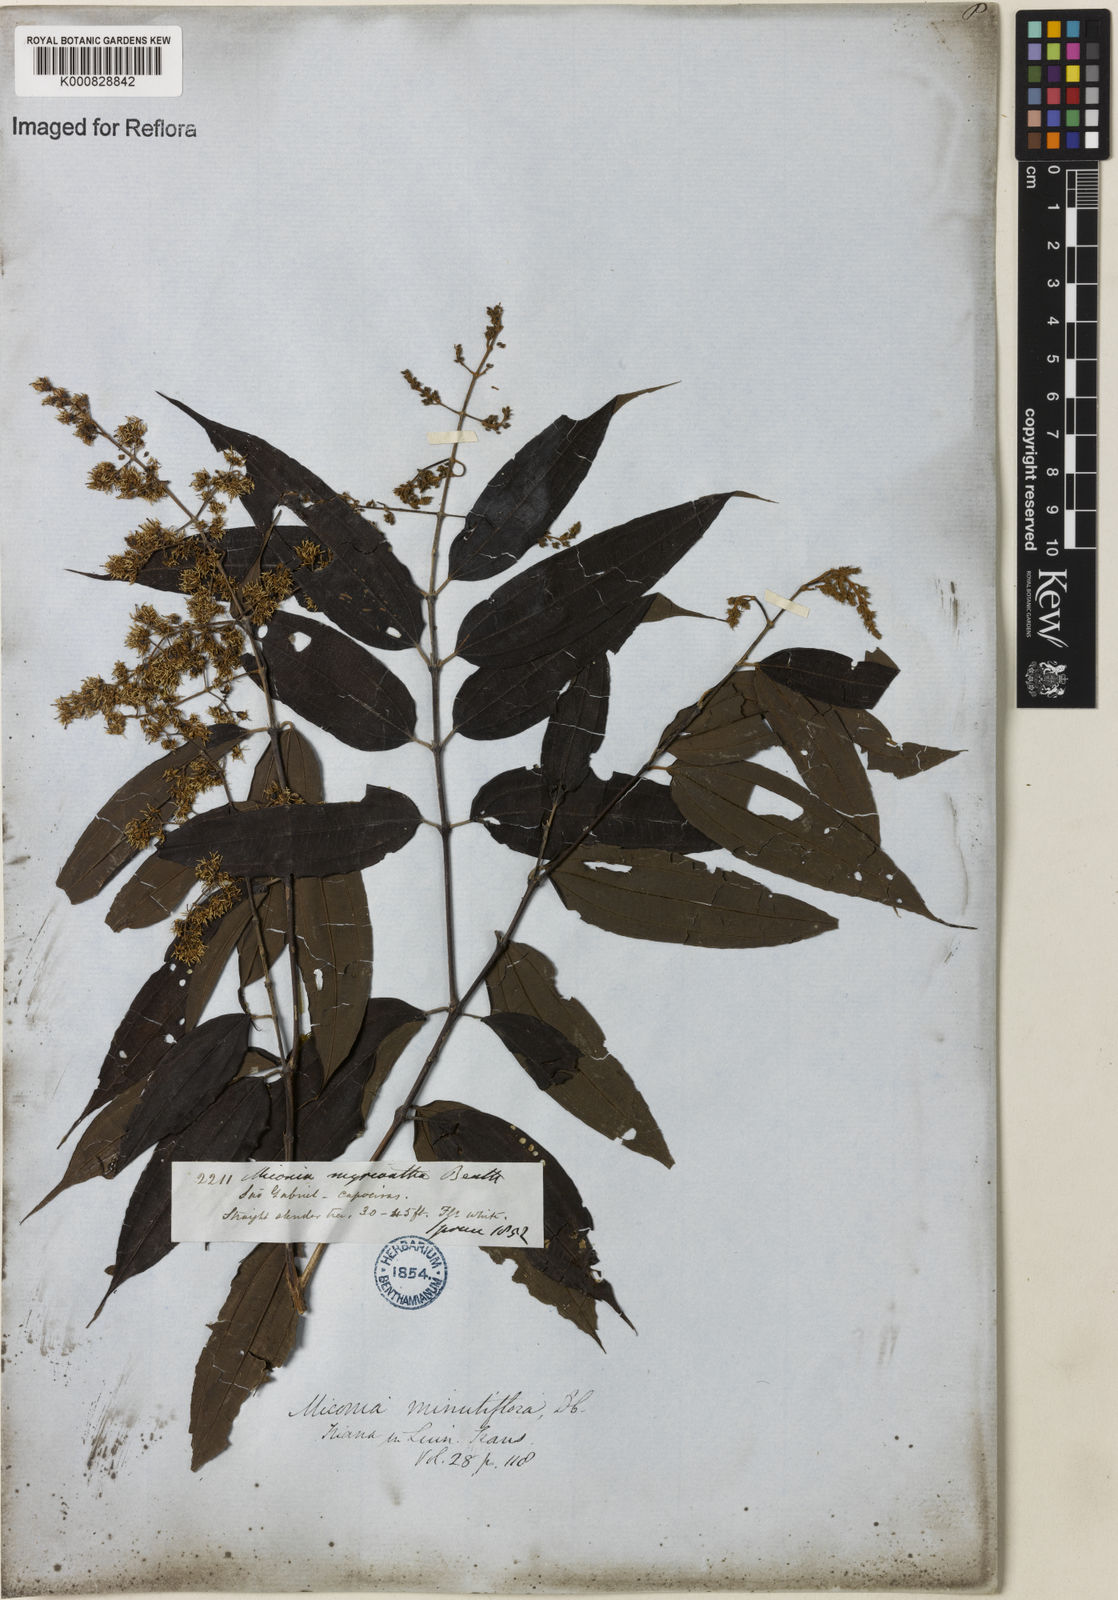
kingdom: Plantae
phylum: Tracheophyta
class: Magnoliopsida
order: Myrtales
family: Melastomataceae
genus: Miconia
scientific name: Miconia myriantha
